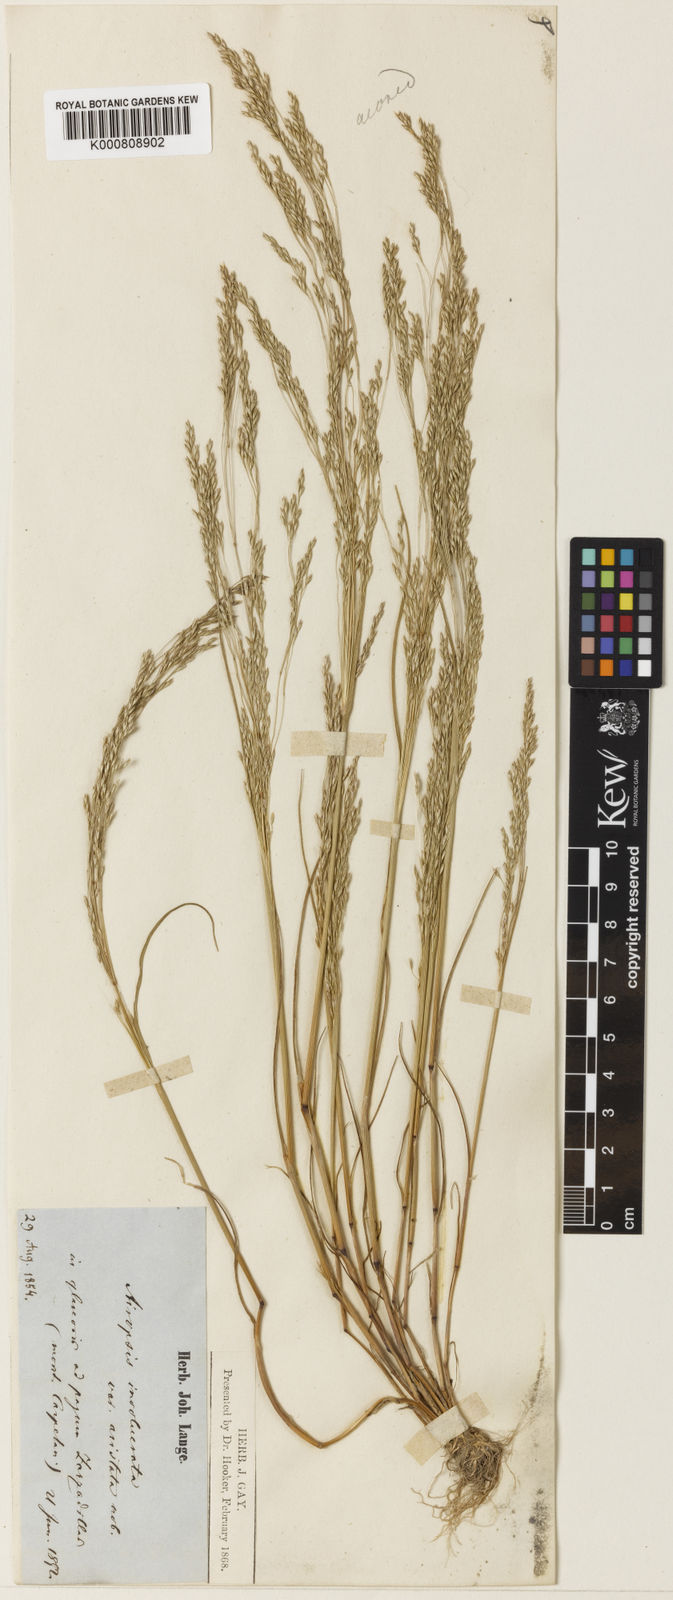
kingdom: Plantae
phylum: Tracheophyta
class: Liliopsida
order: Poales
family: Poaceae
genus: Periballia
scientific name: Periballia involucrata
